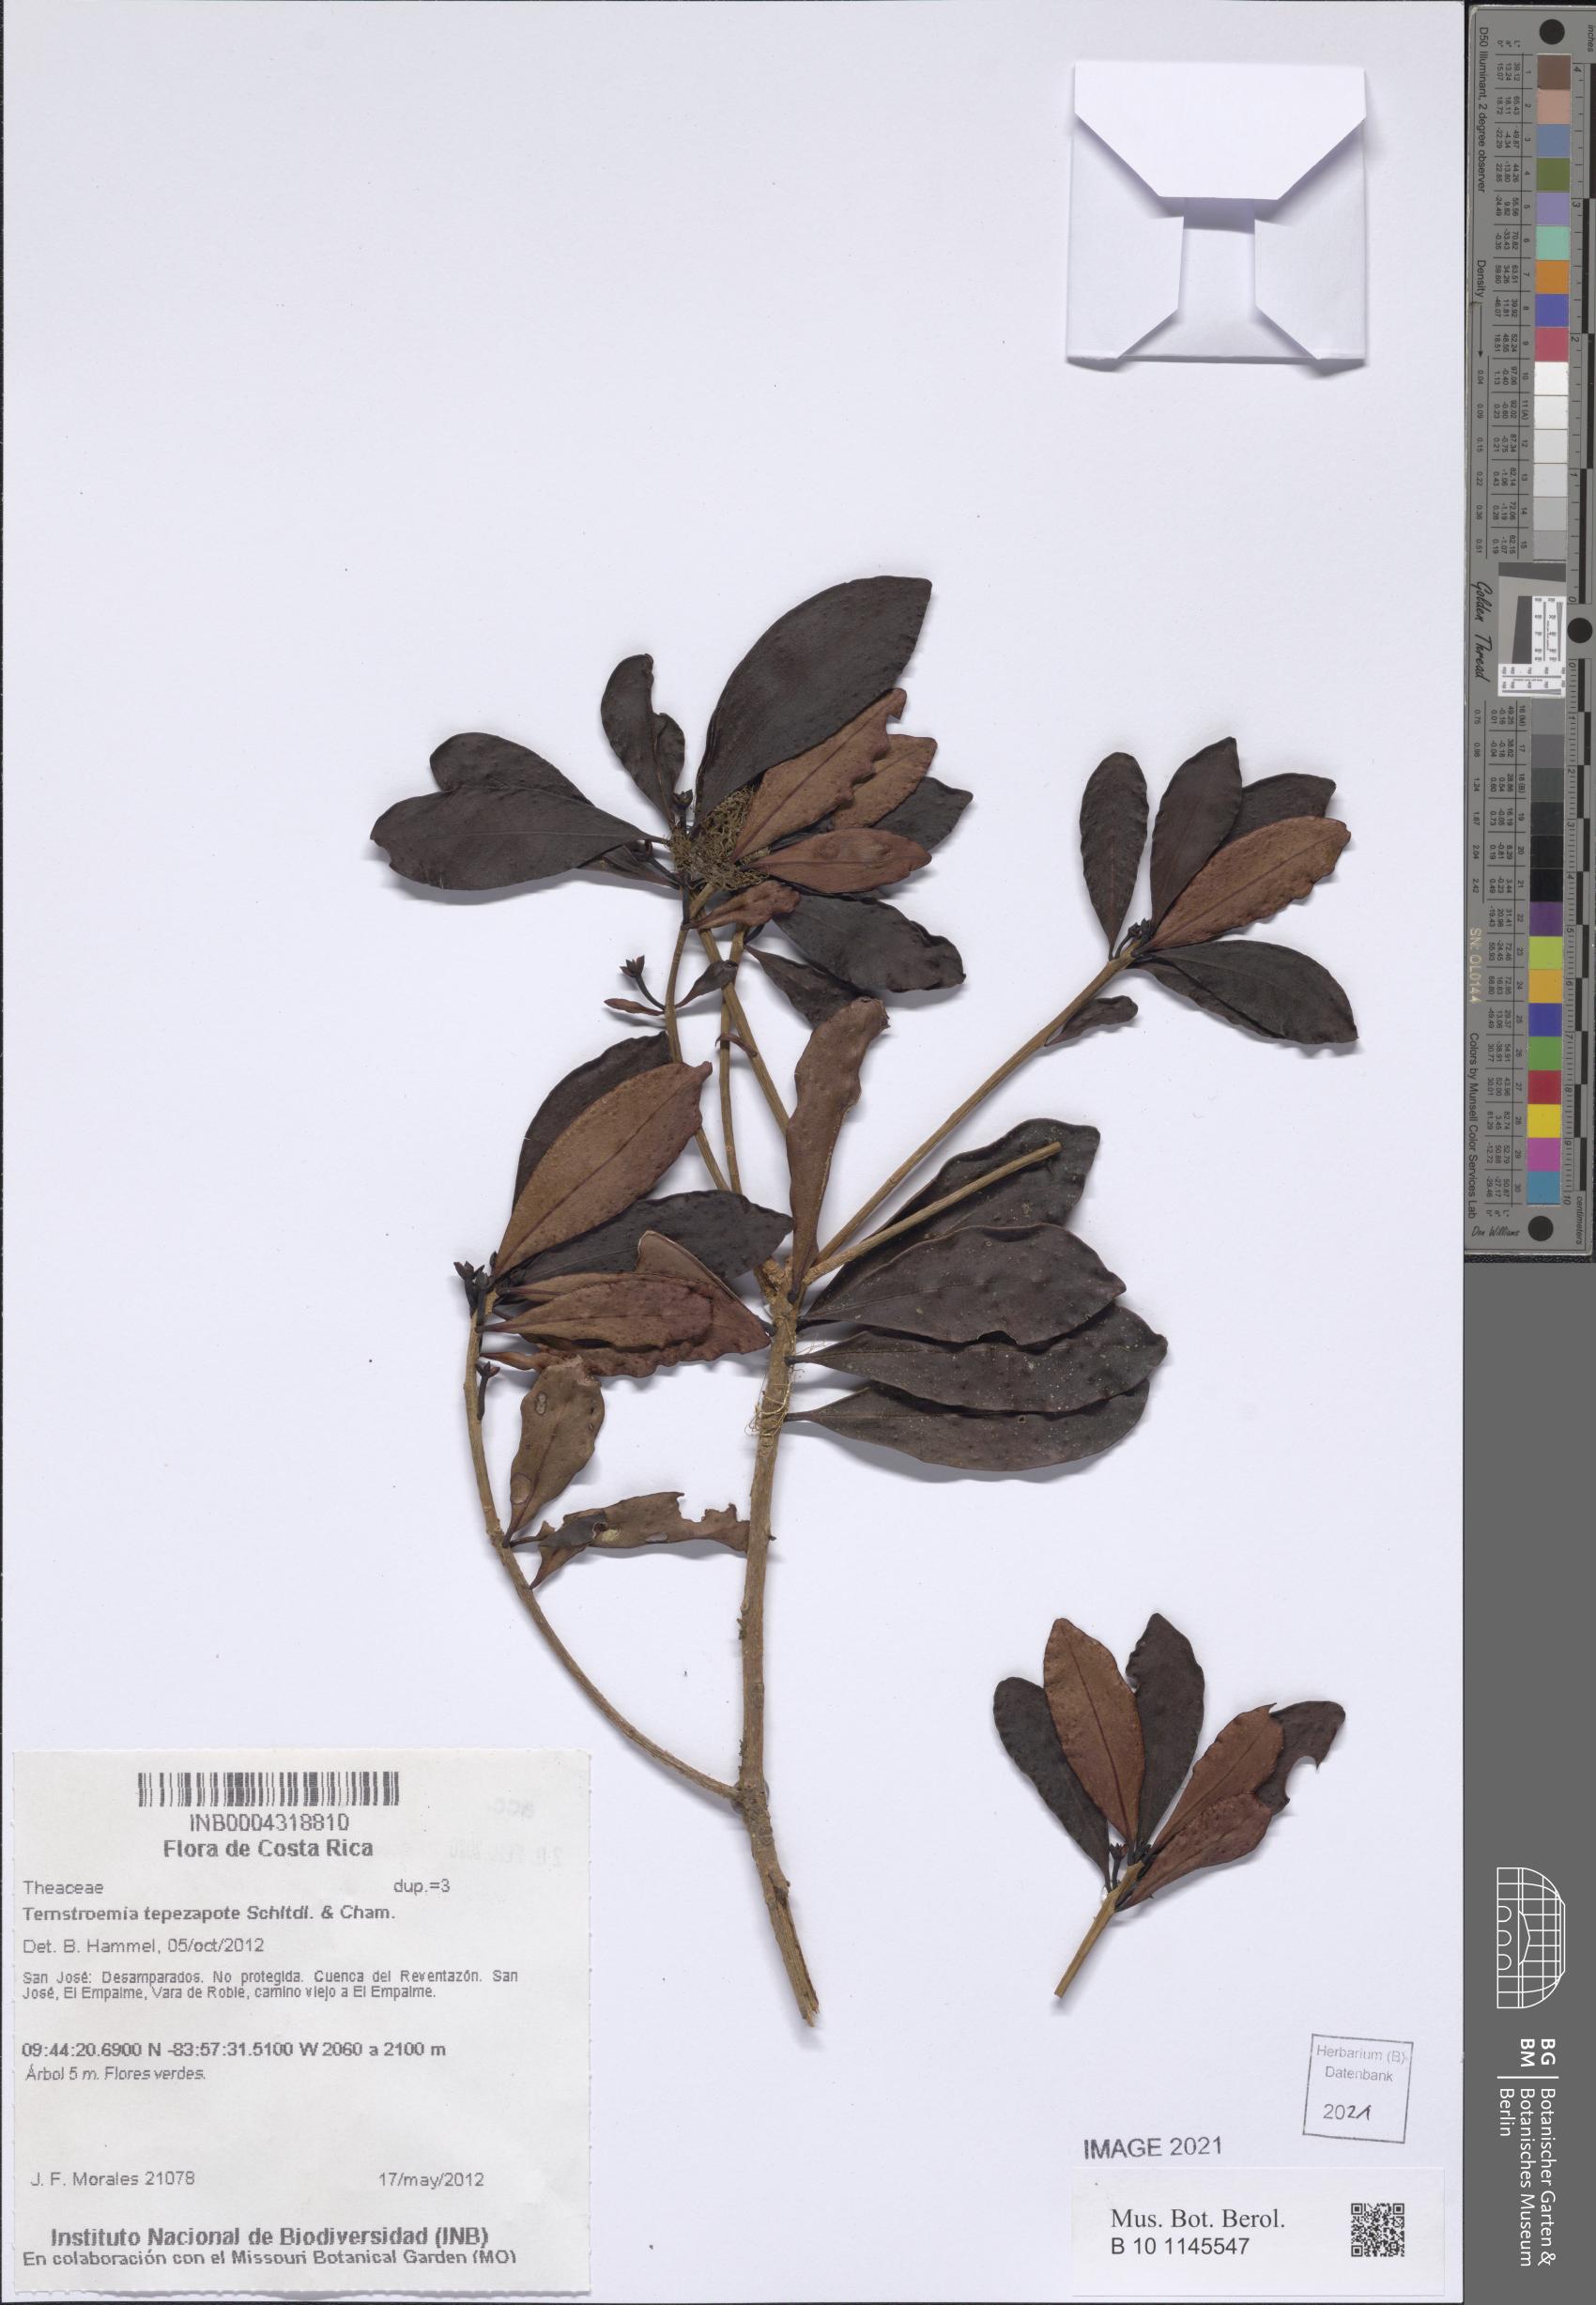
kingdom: Plantae
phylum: Tracheophyta
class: Magnoliopsida
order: Ericales
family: Pentaphylacaceae
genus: Ternstroemia
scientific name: Ternstroemia tepezapote
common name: Copey vera
